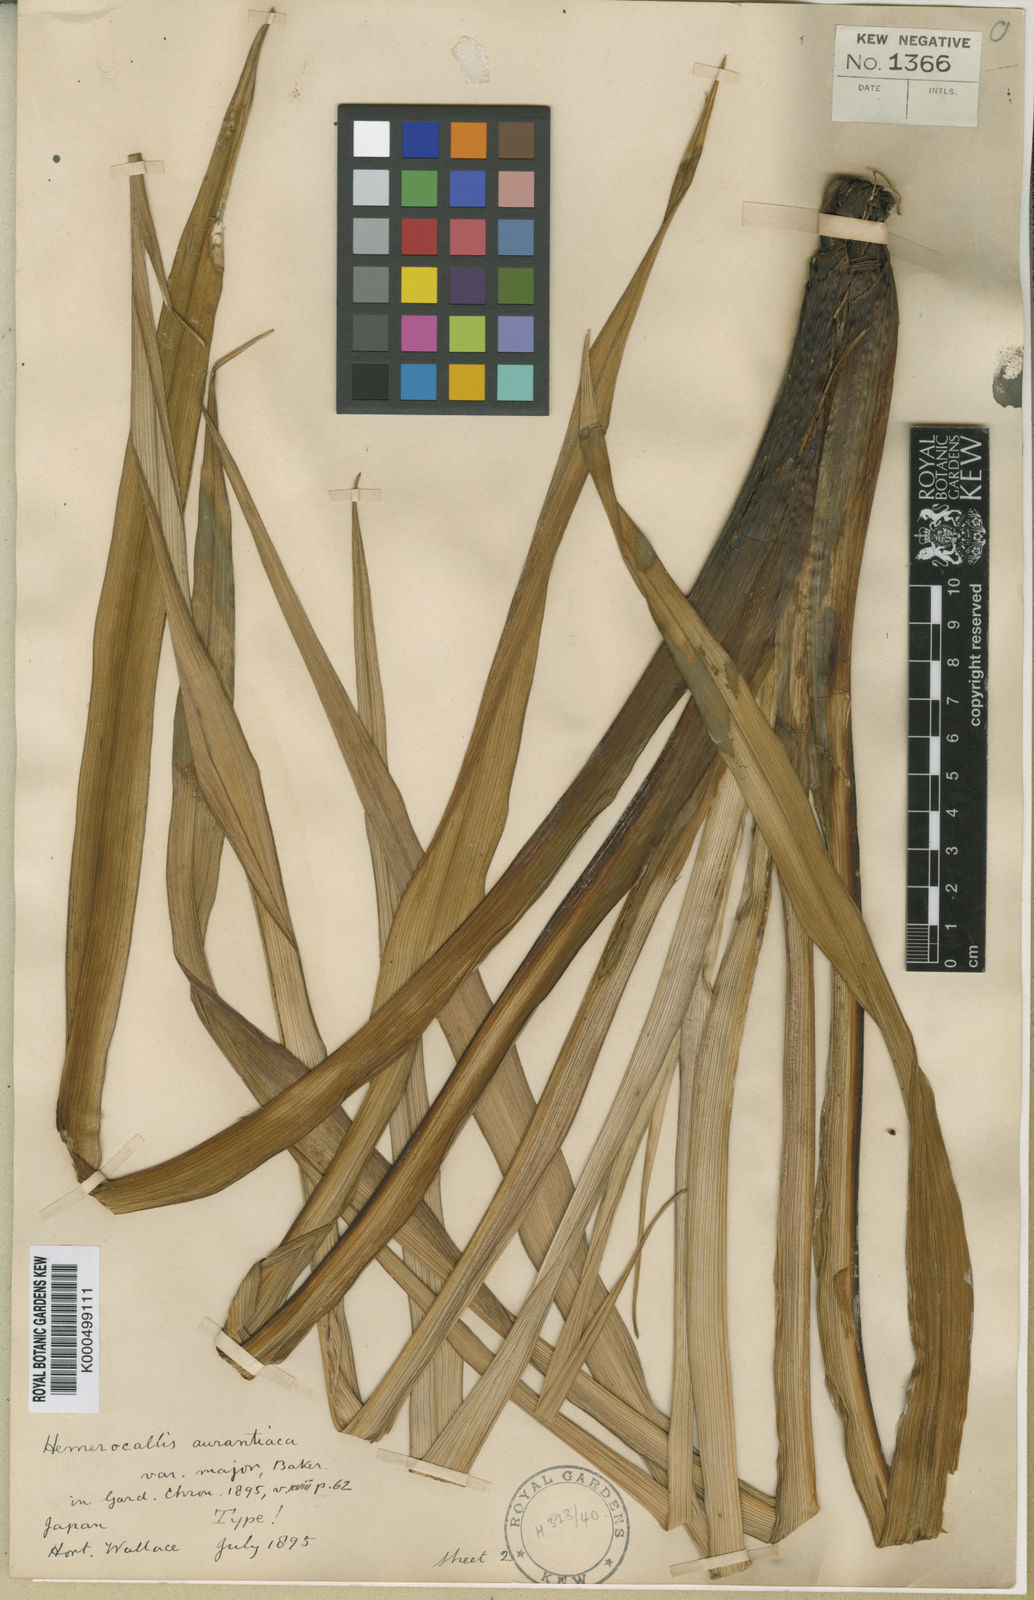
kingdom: Plantae
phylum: Tracheophyta
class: Liliopsida
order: Asparagales
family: Asphodelaceae
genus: Hemerocallis
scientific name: Hemerocallis fulva
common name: Orange day-lily
